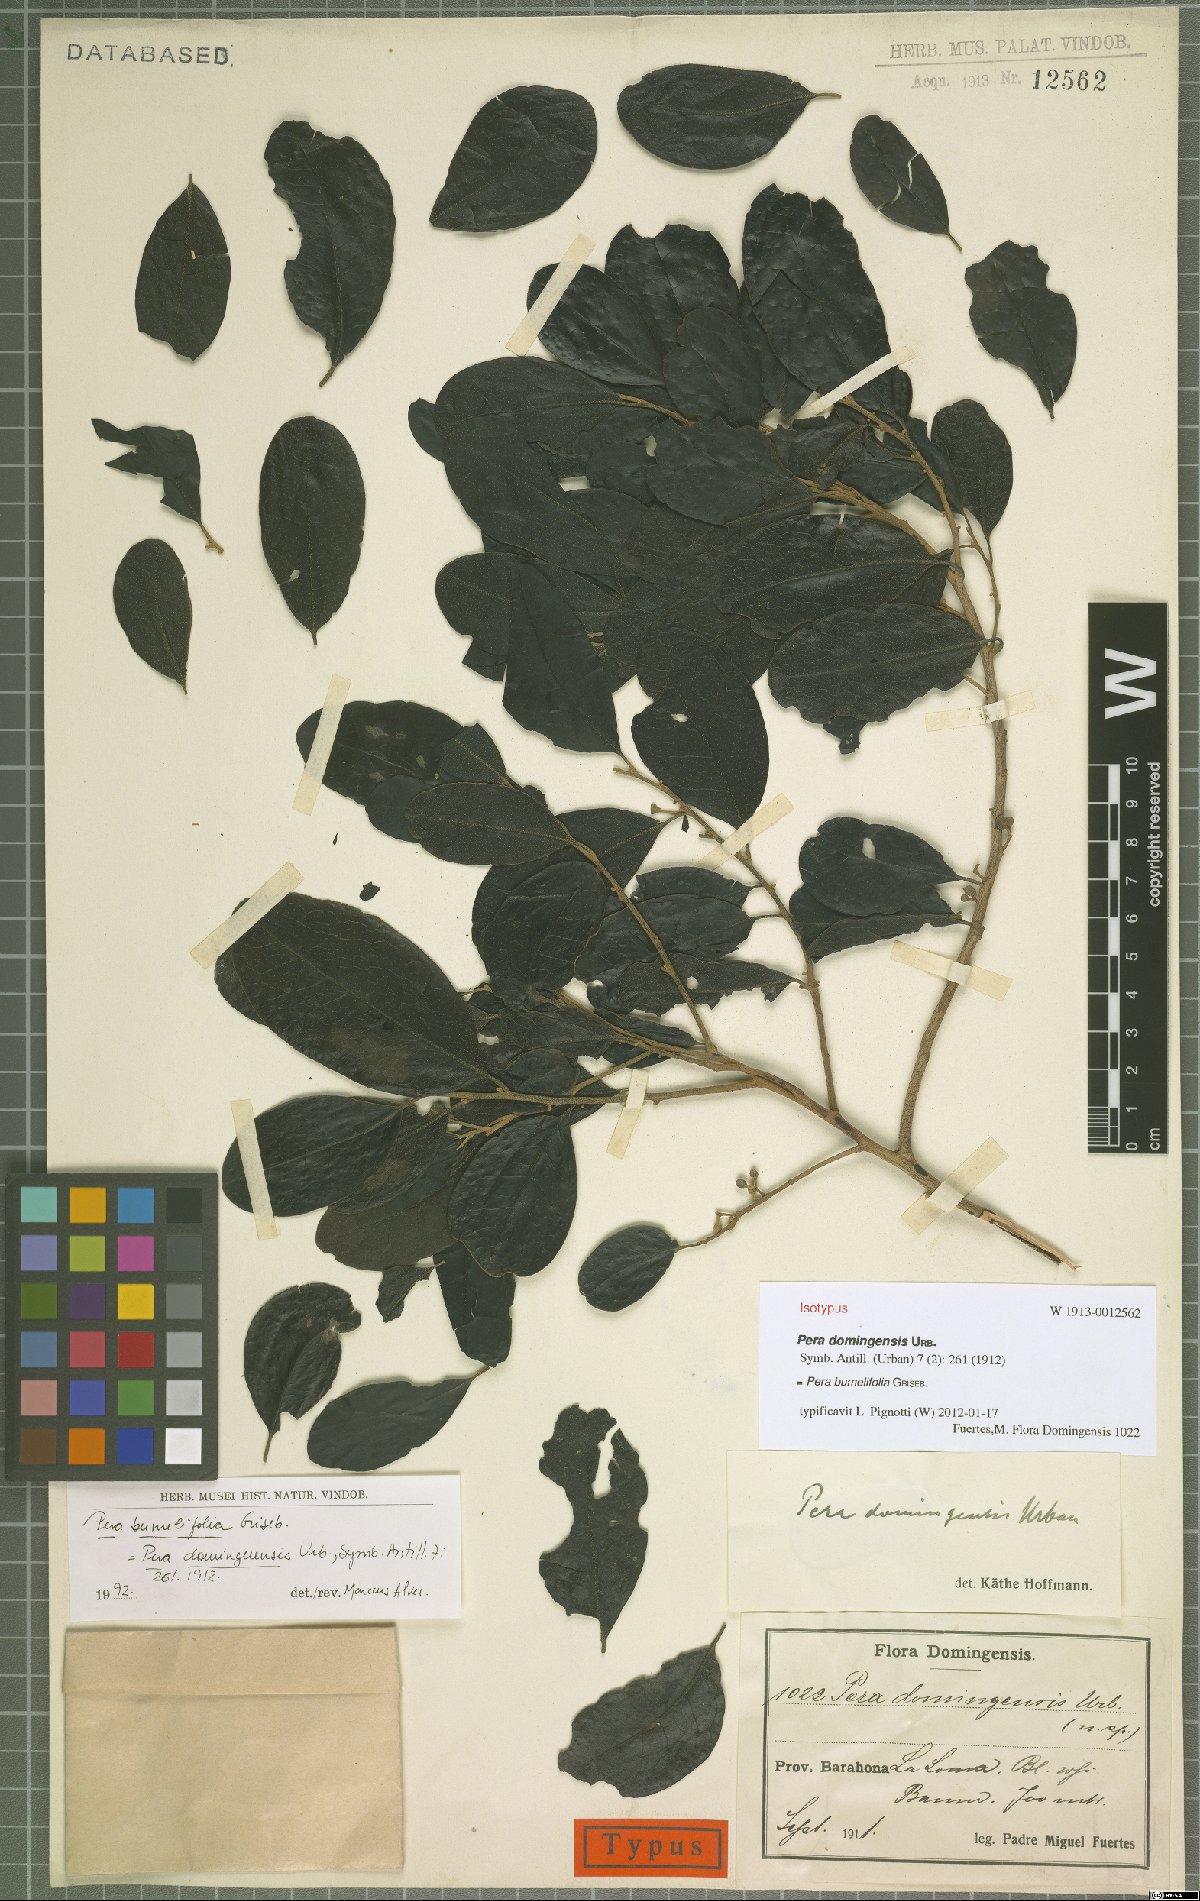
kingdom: Plantae
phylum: Tracheophyta
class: Magnoliopsida
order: Malpighiales
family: Peraceae
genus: Pera
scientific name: Pera bumeliifolia
